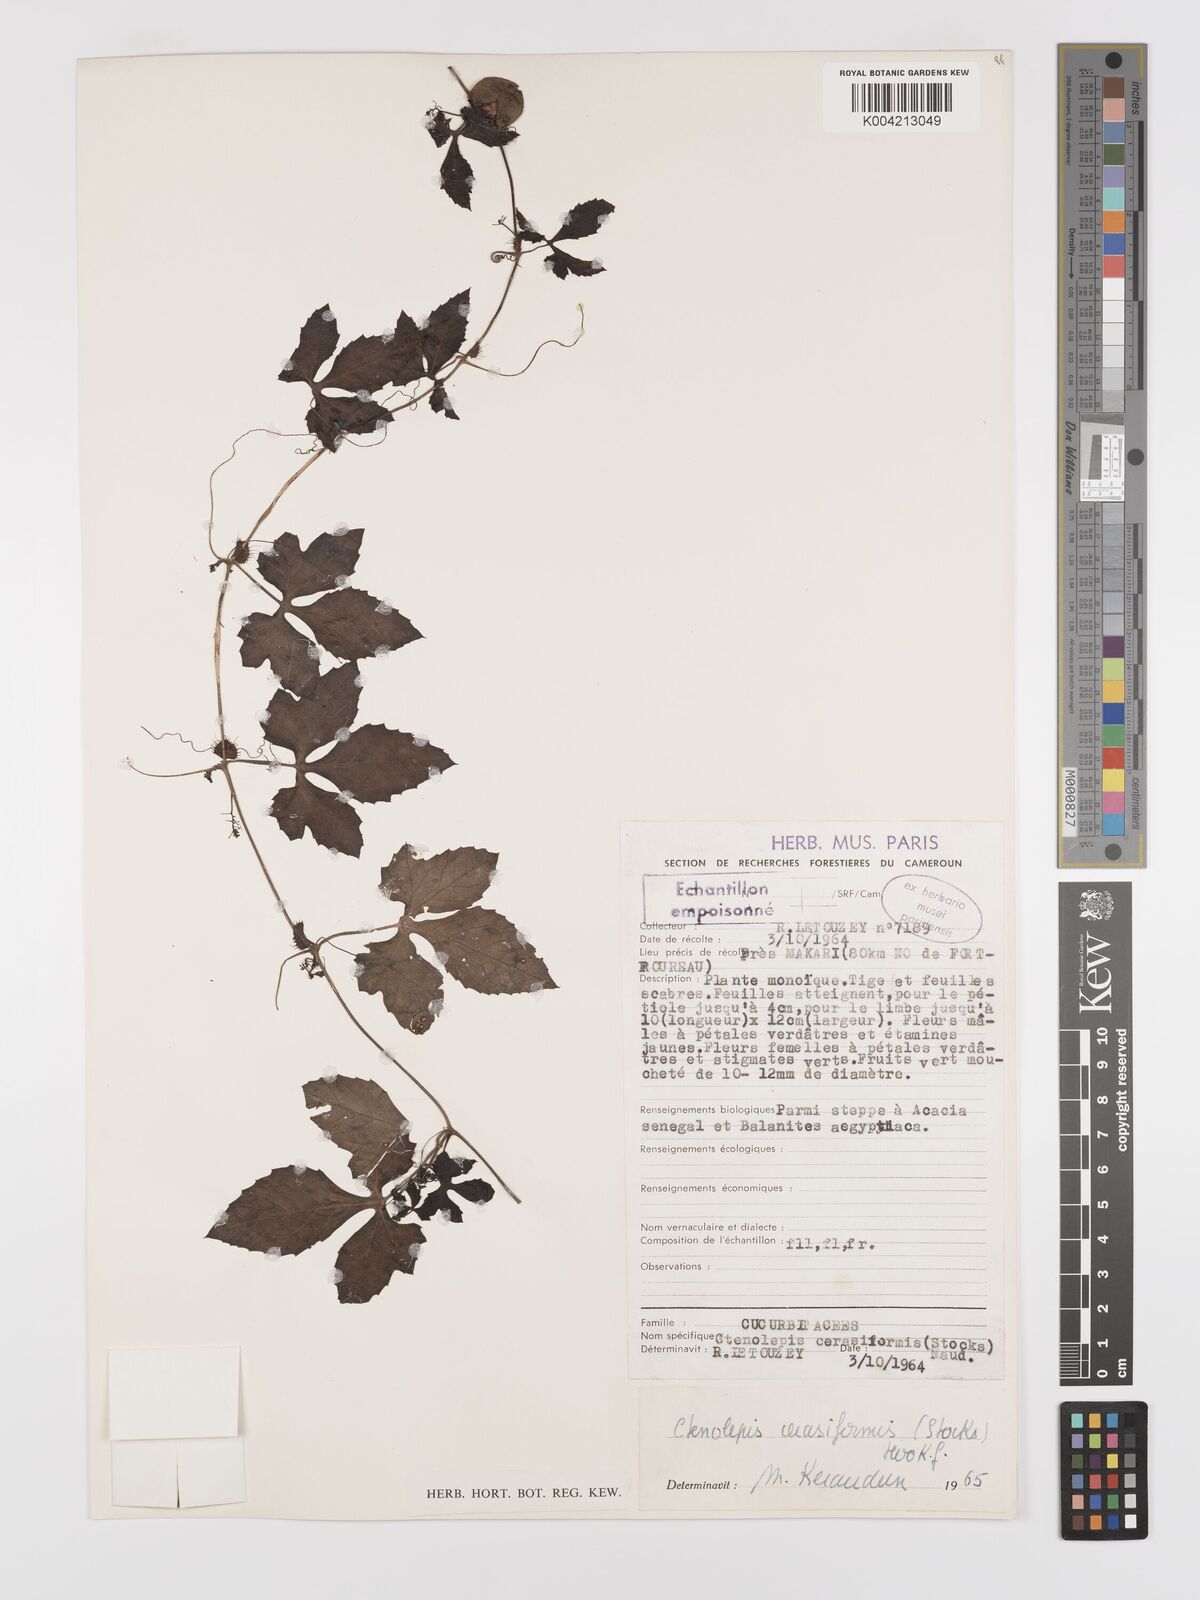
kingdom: Plantae
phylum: Tracheophyta
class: Magnoliopsida
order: Cucurbitales
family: Cucurbitaceae
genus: Blastania
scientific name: Blastania cerasiformis
